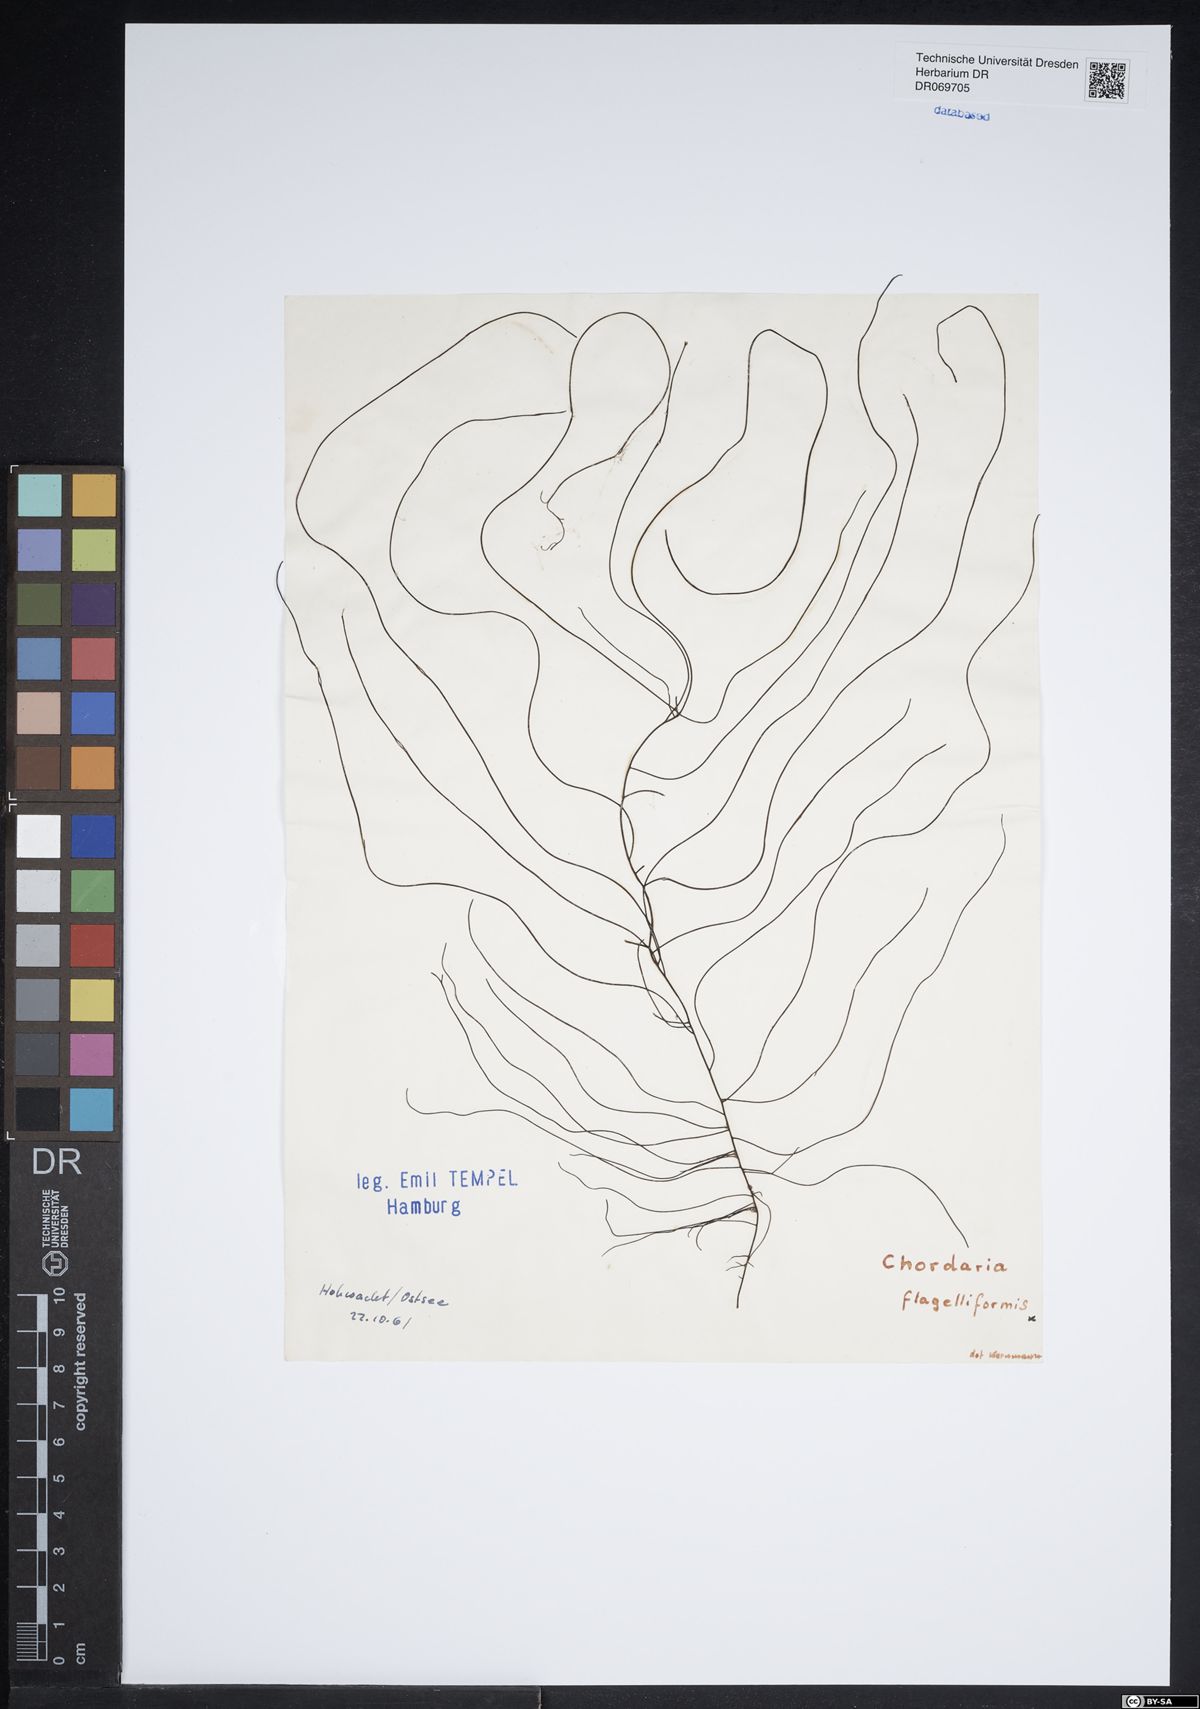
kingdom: Chromista
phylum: Ochrophyta
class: Phaeophyceae
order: Ectocarpales
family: Chordariaceae
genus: Chordaria
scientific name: Chordaria flagelliformis
